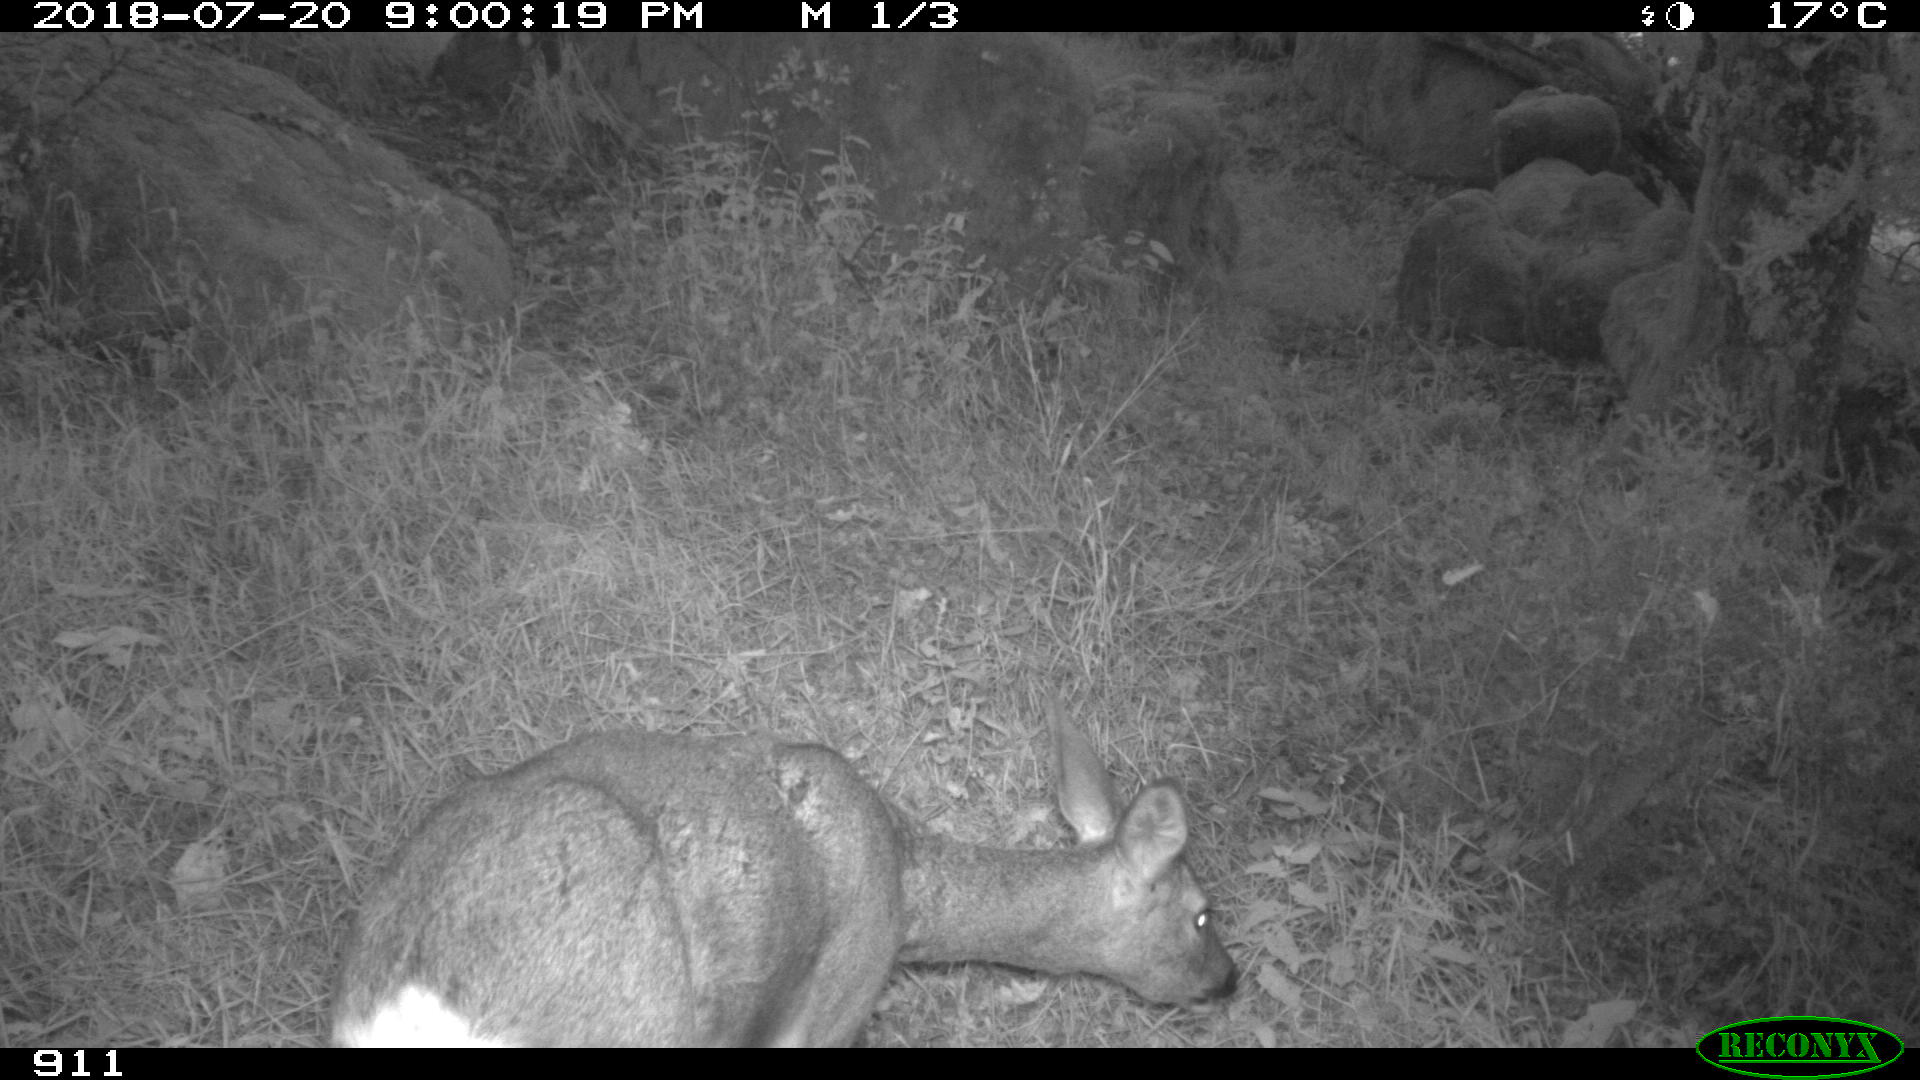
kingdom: Animalia
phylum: Chordata
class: Mammalia
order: Artiodactyla
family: Cervidae
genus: Capreolus
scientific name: Capreolus capreolus
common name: Western roe deer
